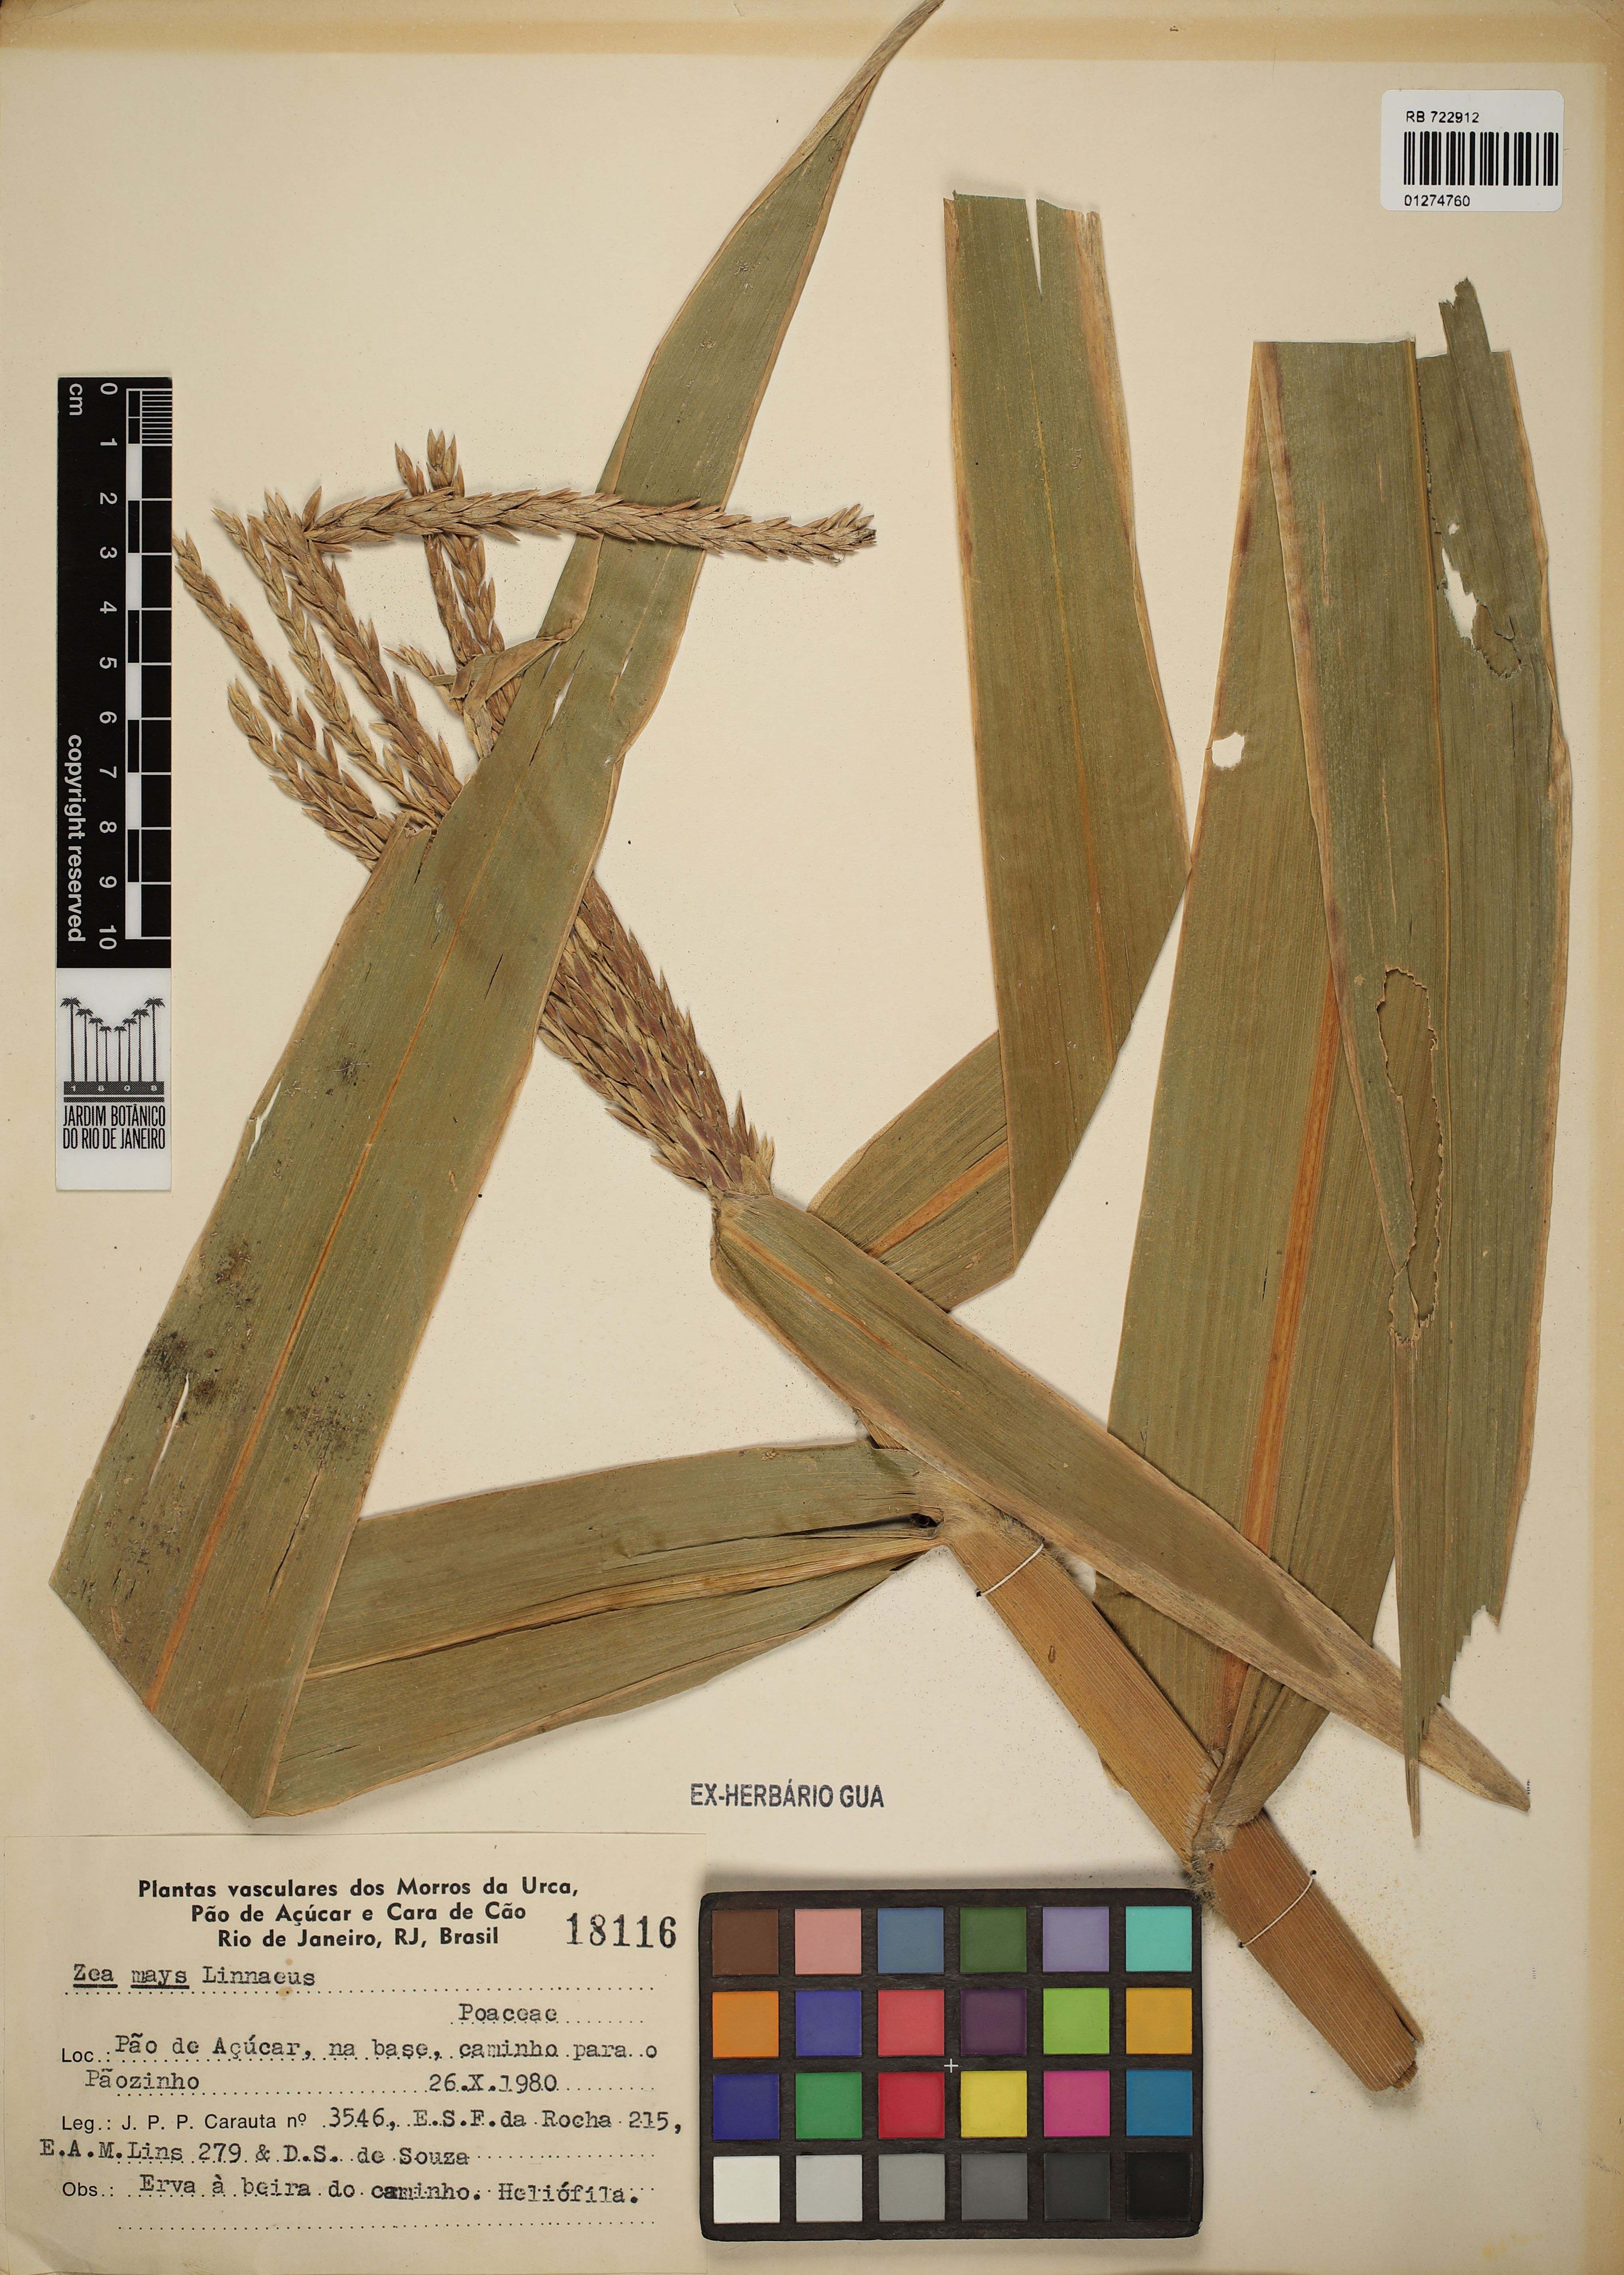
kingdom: Plantae
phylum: Tracheophyta
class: Liliopsida
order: Poales
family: Poaceae
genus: Zea
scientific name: Zea mays
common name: Maize
